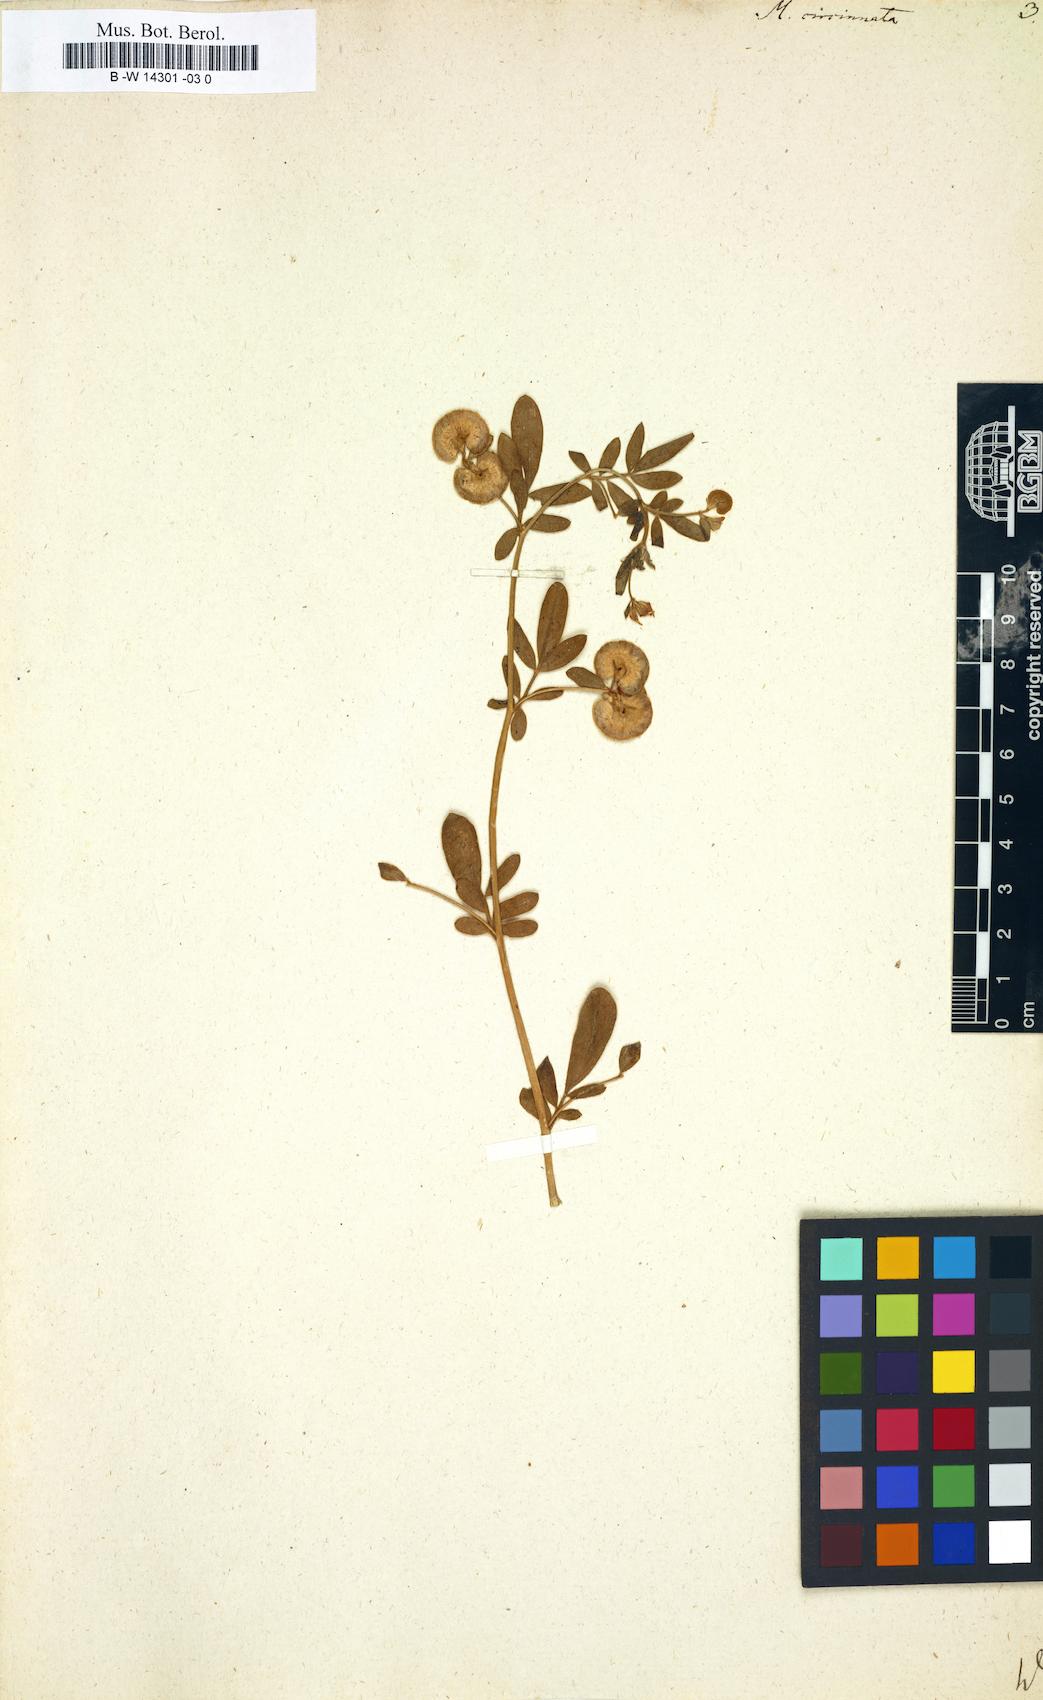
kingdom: Plantae
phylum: Tracheophyta
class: Magnoliopsida
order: Fabales
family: Fabaceae
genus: Anthyllis
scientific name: Anthyllis circinnata
